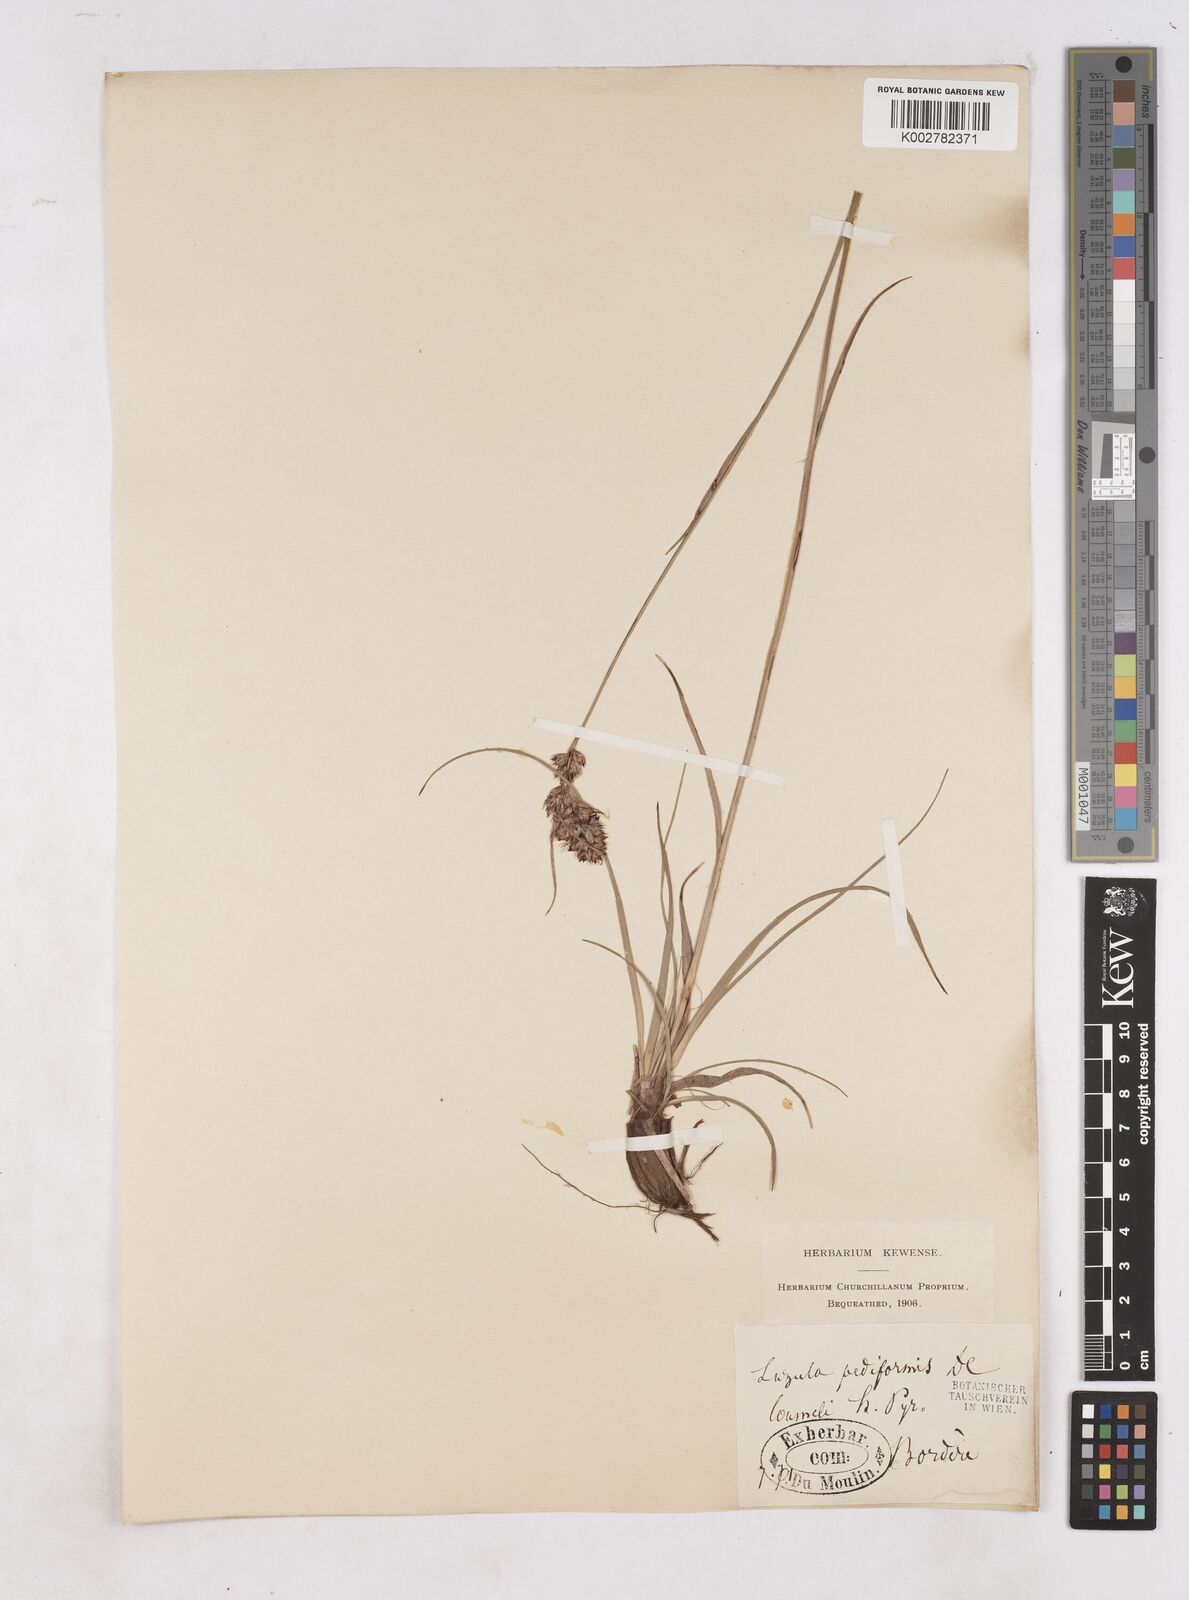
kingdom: Plantae
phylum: Tracheophyta
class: Liliopsida
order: Poales
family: Juncaceae
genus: Luzula
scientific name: Luzula pediformis
